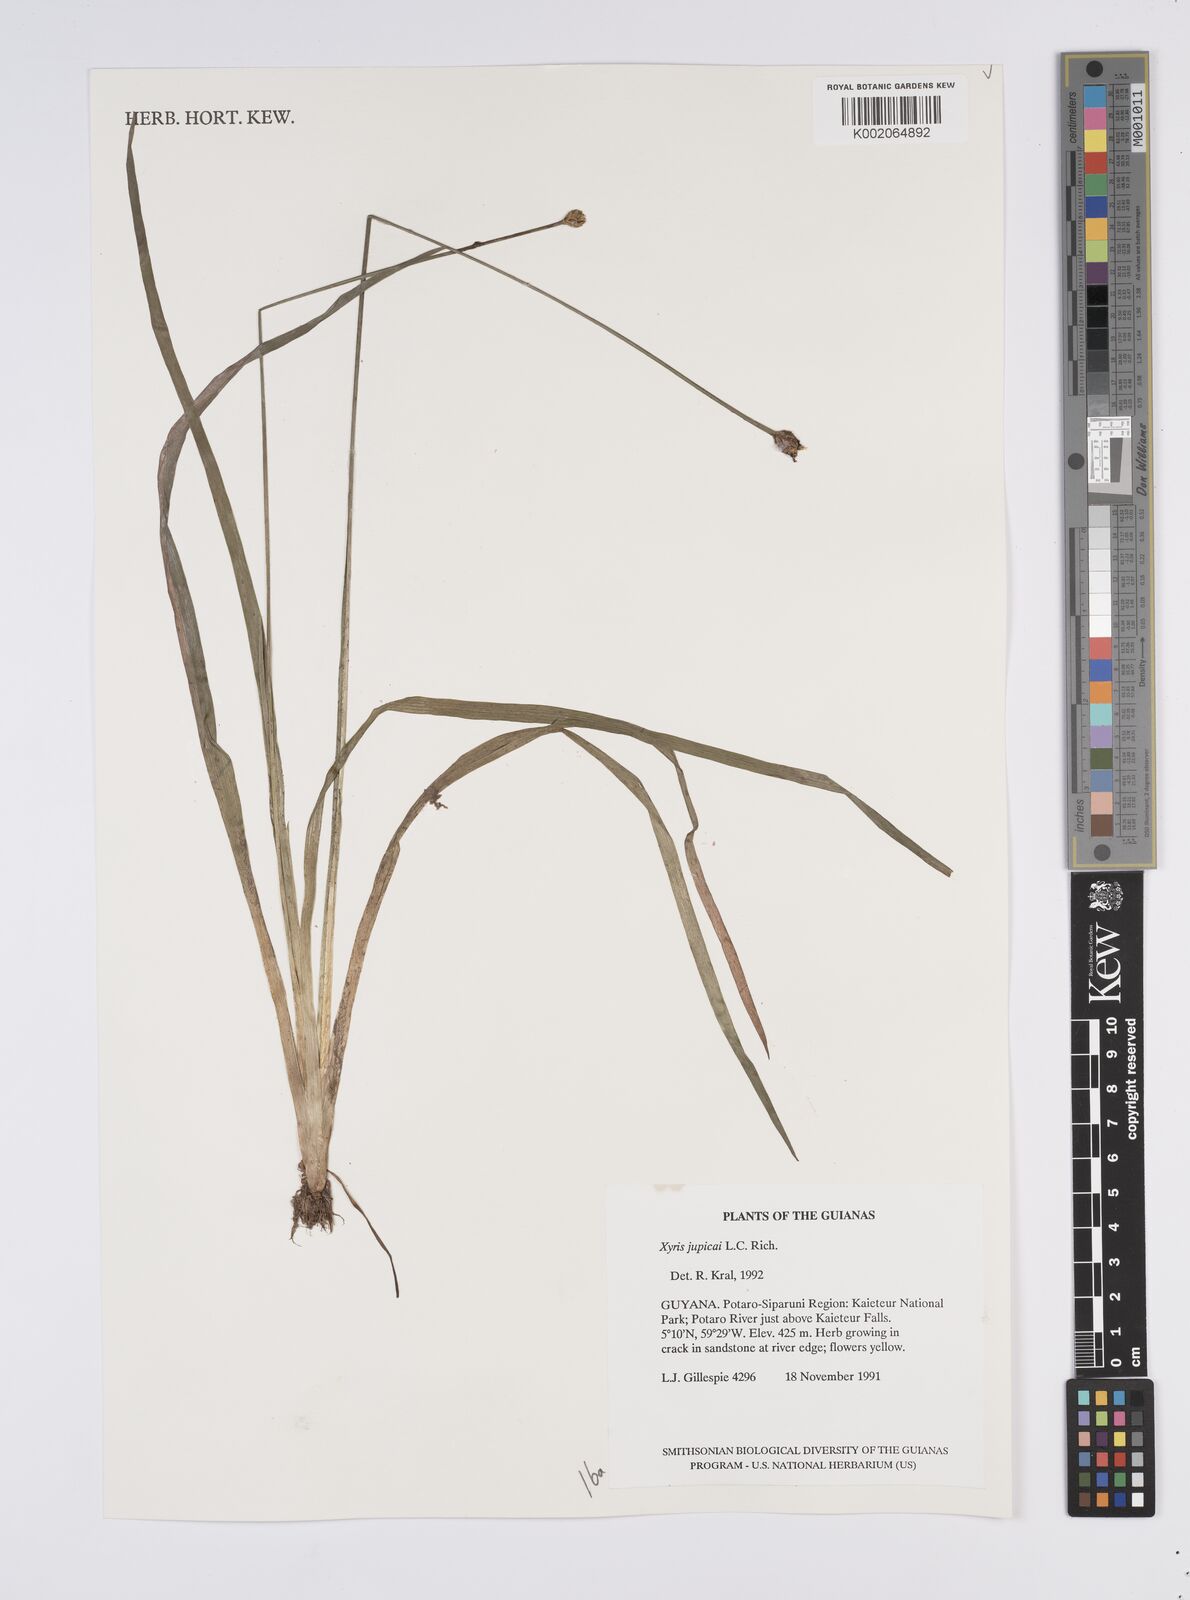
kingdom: Plantae
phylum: Tracheophyta
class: Liliopsida
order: Poales
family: Xyridaceae
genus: Xyris
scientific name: Xyris jupicai
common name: Richard's yelloweyed grass
